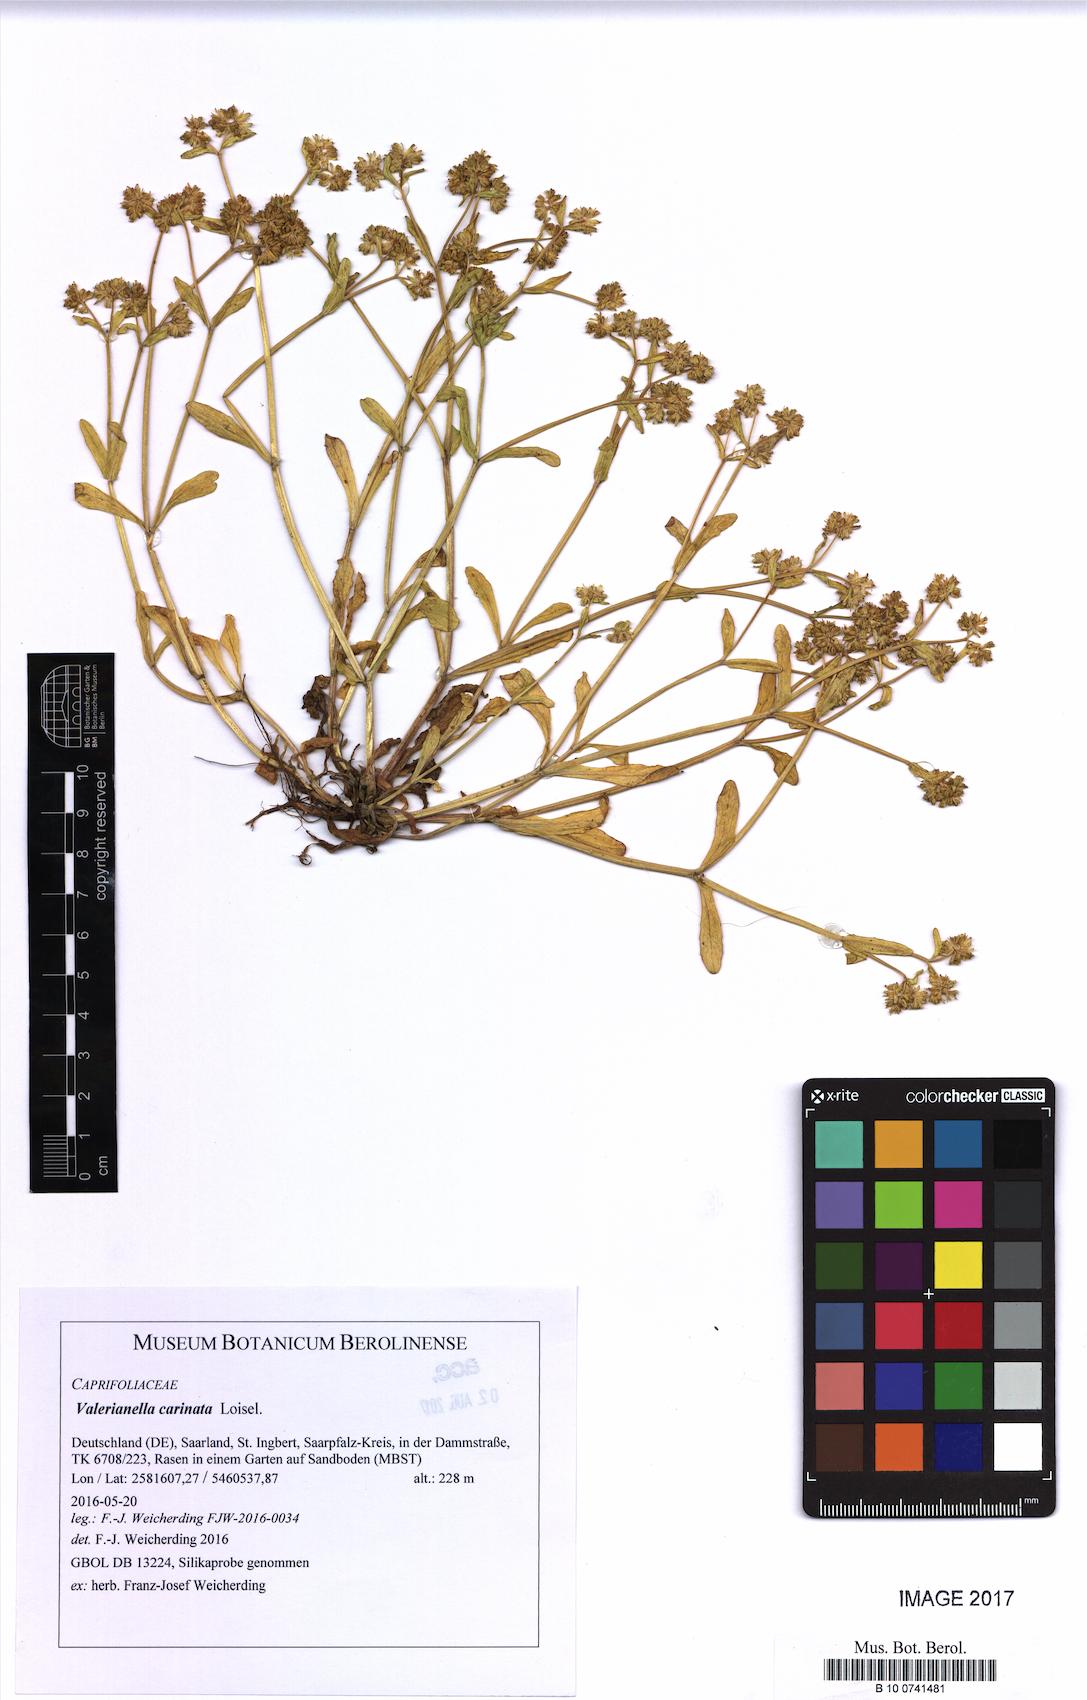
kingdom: Plantae
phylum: Tracheophyta
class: Magnoliopsida
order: Dipsacales
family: Caprifoliaceae
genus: Valerianella
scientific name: Valerianella carinata
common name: Keeled-fruited cornsalad
